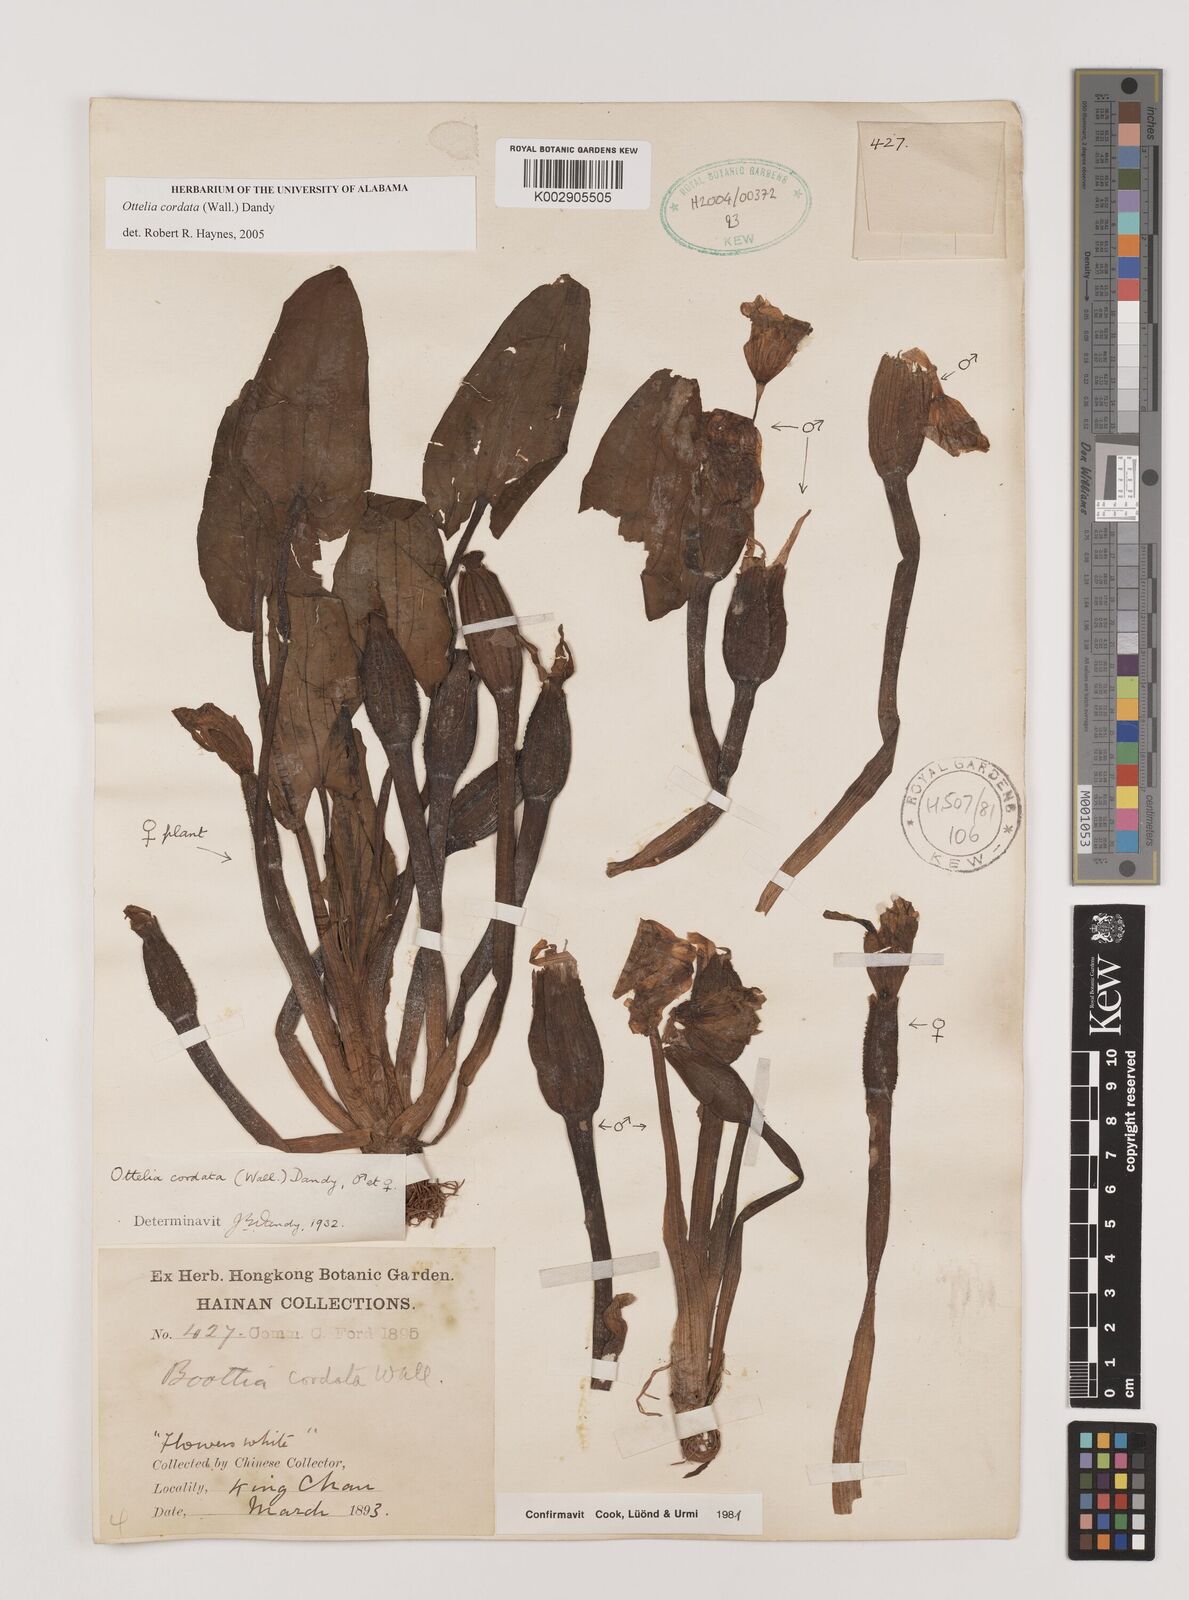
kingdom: Plantae
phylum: Tracheophyta
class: Liliopsida
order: Alismatales
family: Hydrocharitaceae
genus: Ottelia
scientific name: Ottelia cordata
